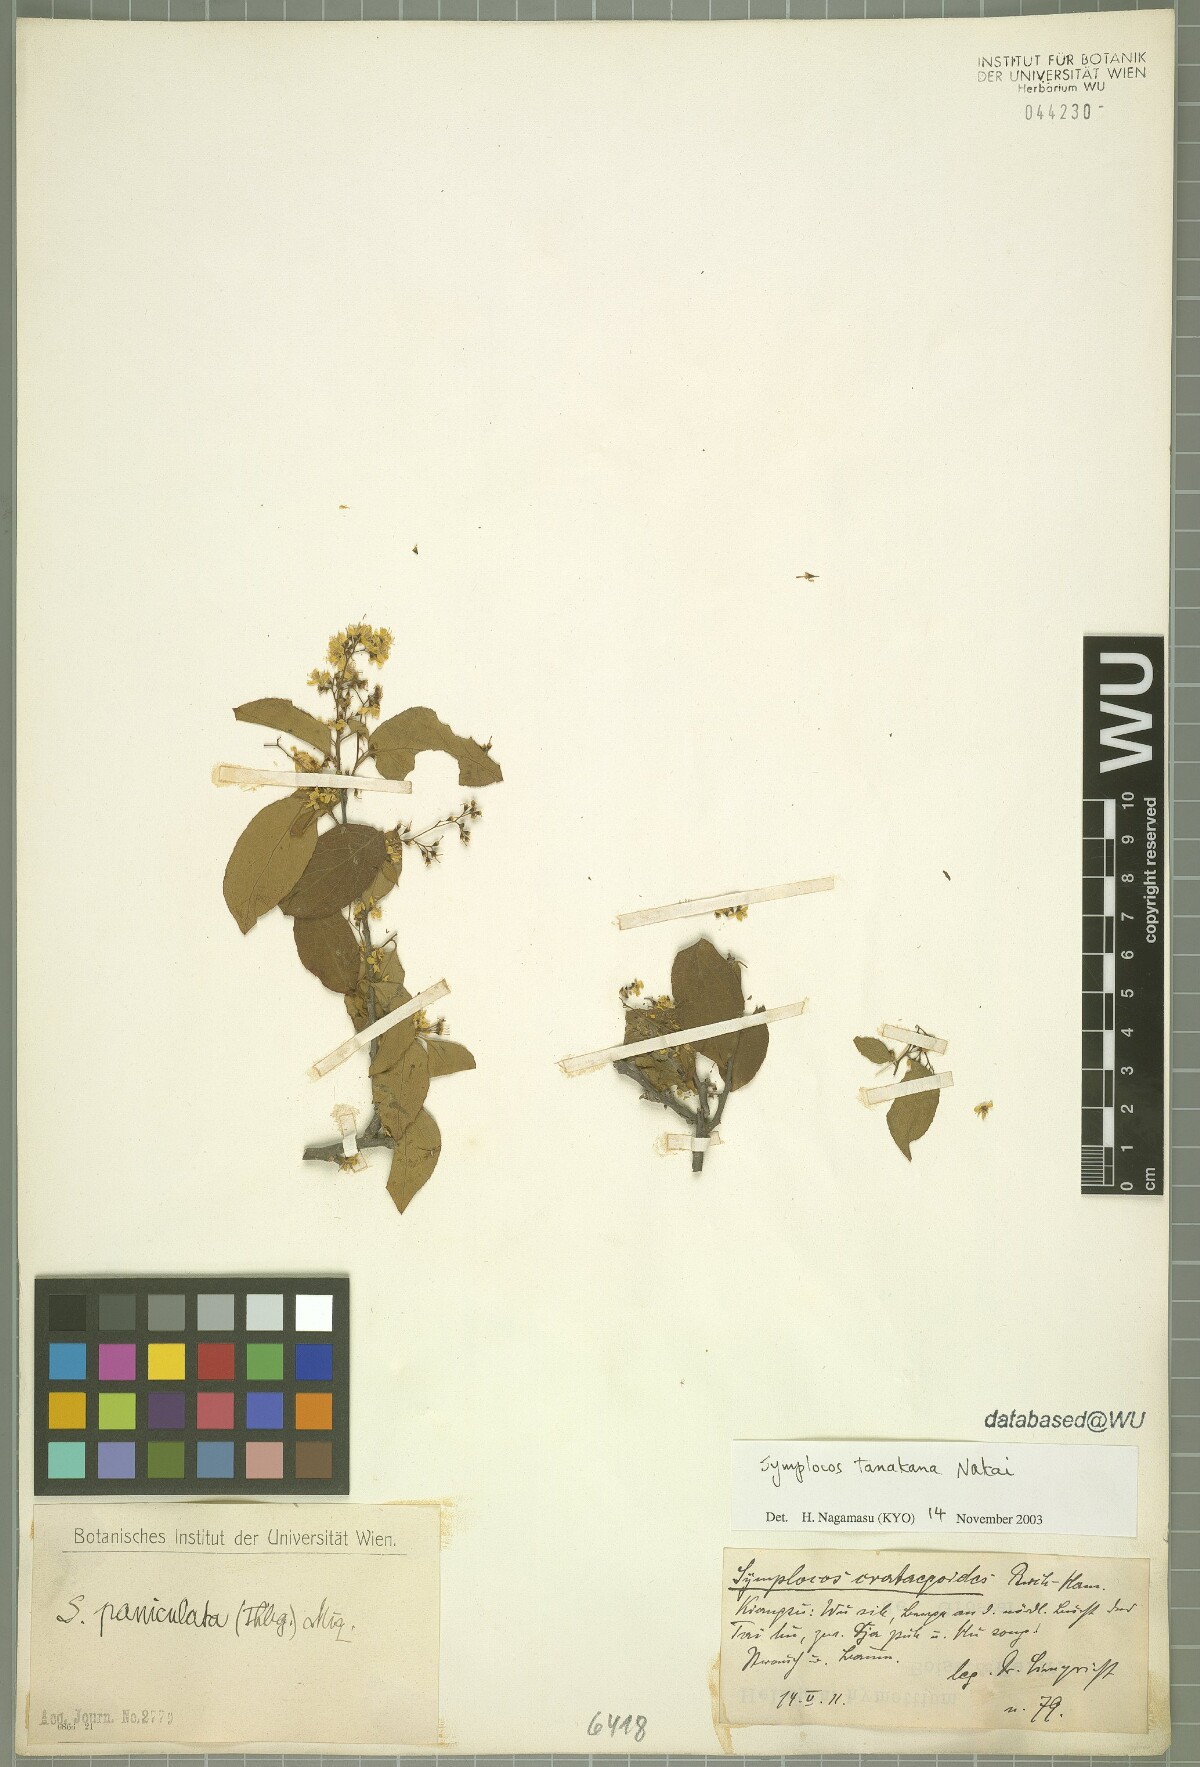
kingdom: Plantae
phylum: Tracheophyta
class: Magnoliopsida
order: Ericales
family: Symplocaceae
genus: Symplocos
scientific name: Symplocos tanakana
